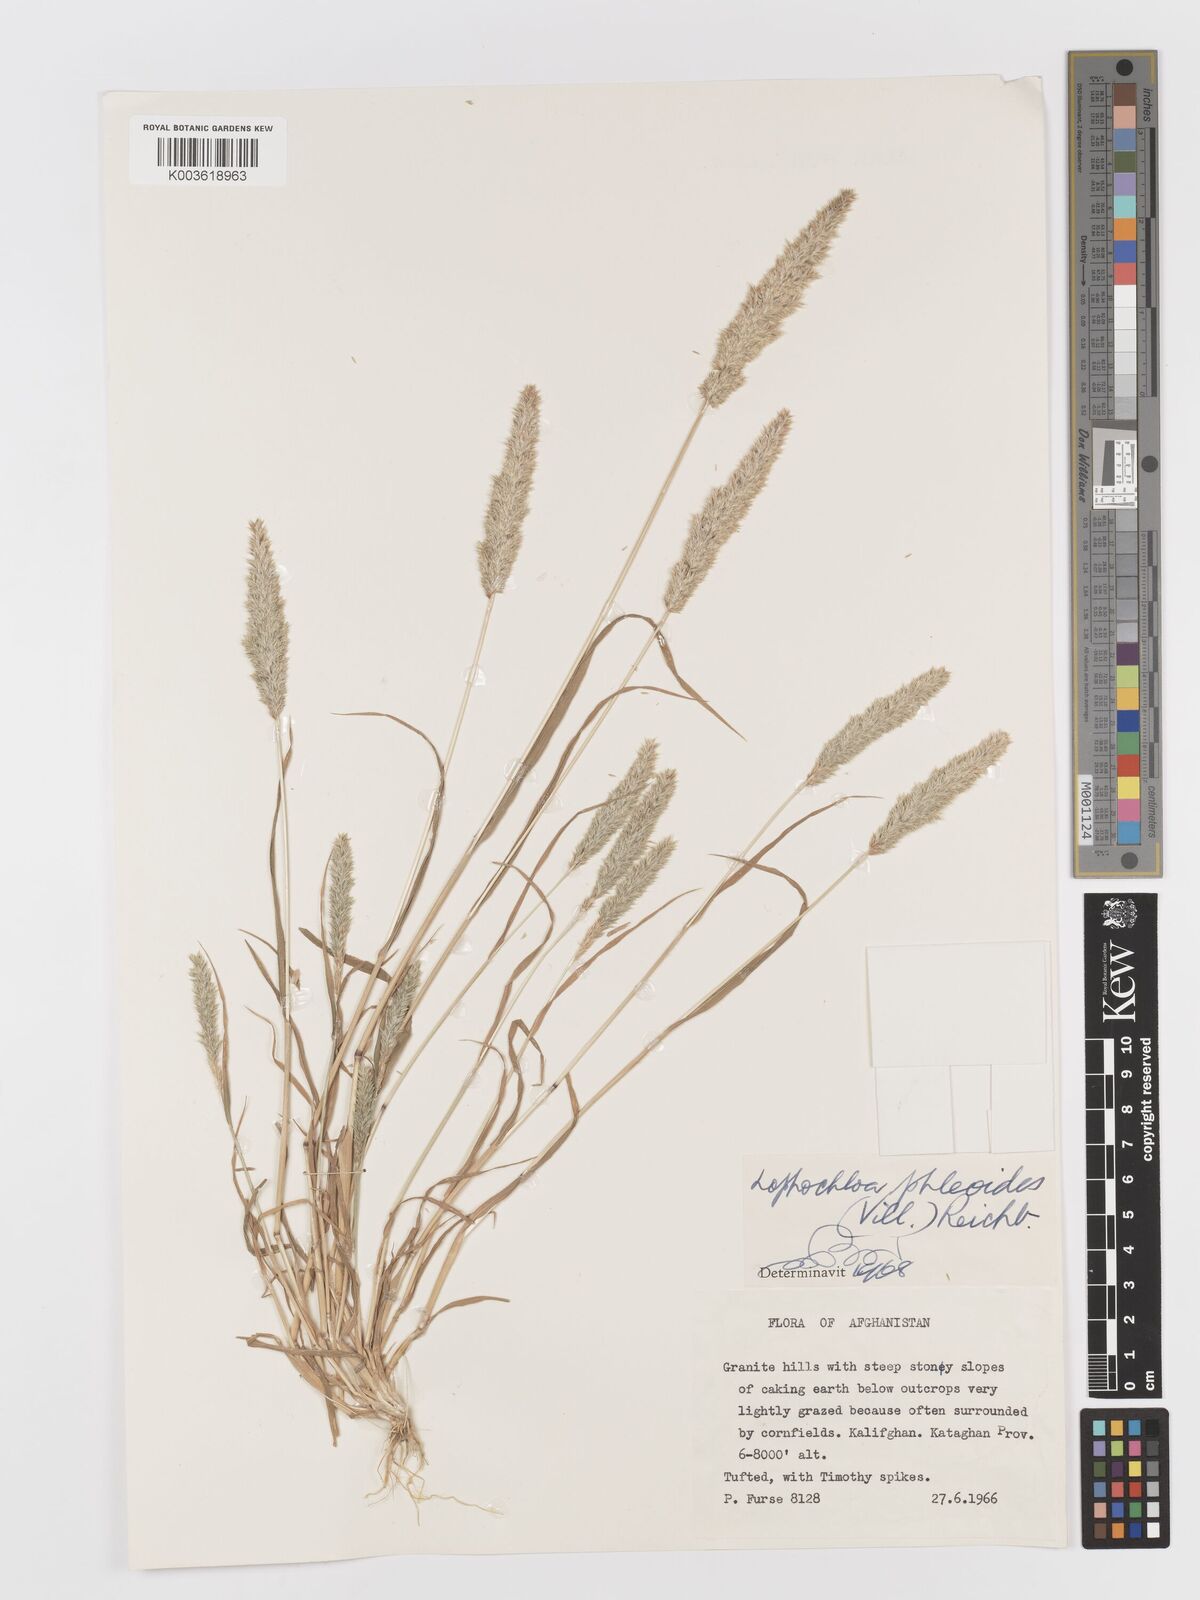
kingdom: Plantae
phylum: Tracheophyta
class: Liliopsida
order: Poales
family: Poaceae
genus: Rostraria
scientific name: Rostraria cristata
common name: Mediterranean hair-grass
